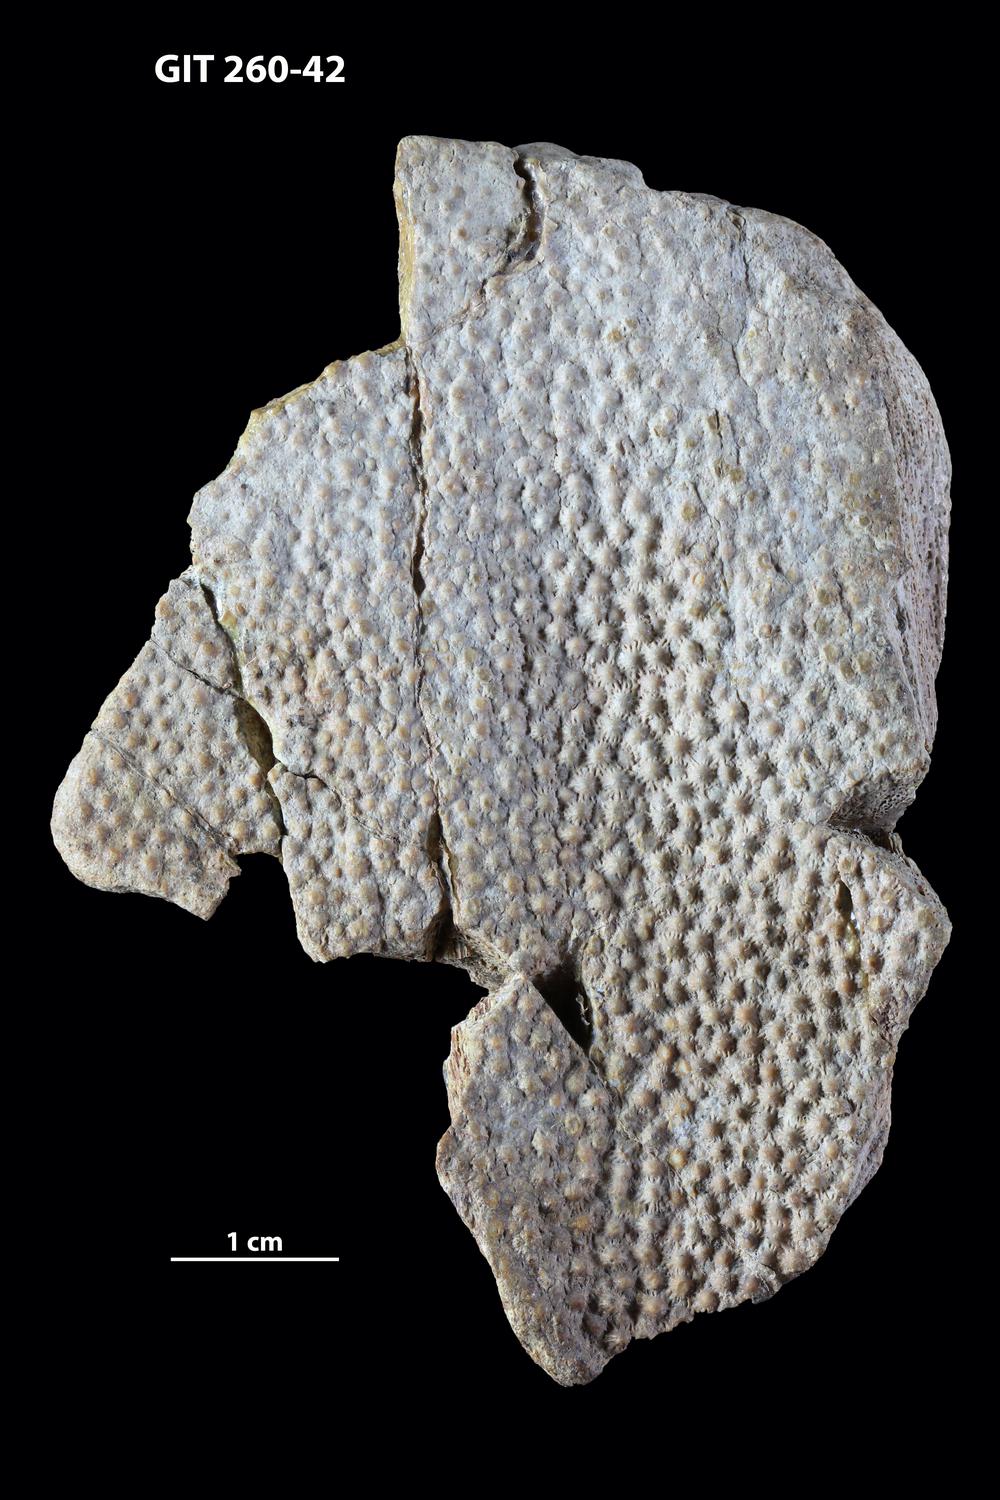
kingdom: Animalia
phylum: Chordata
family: Homostiidae
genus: Homostius
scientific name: Homostius
